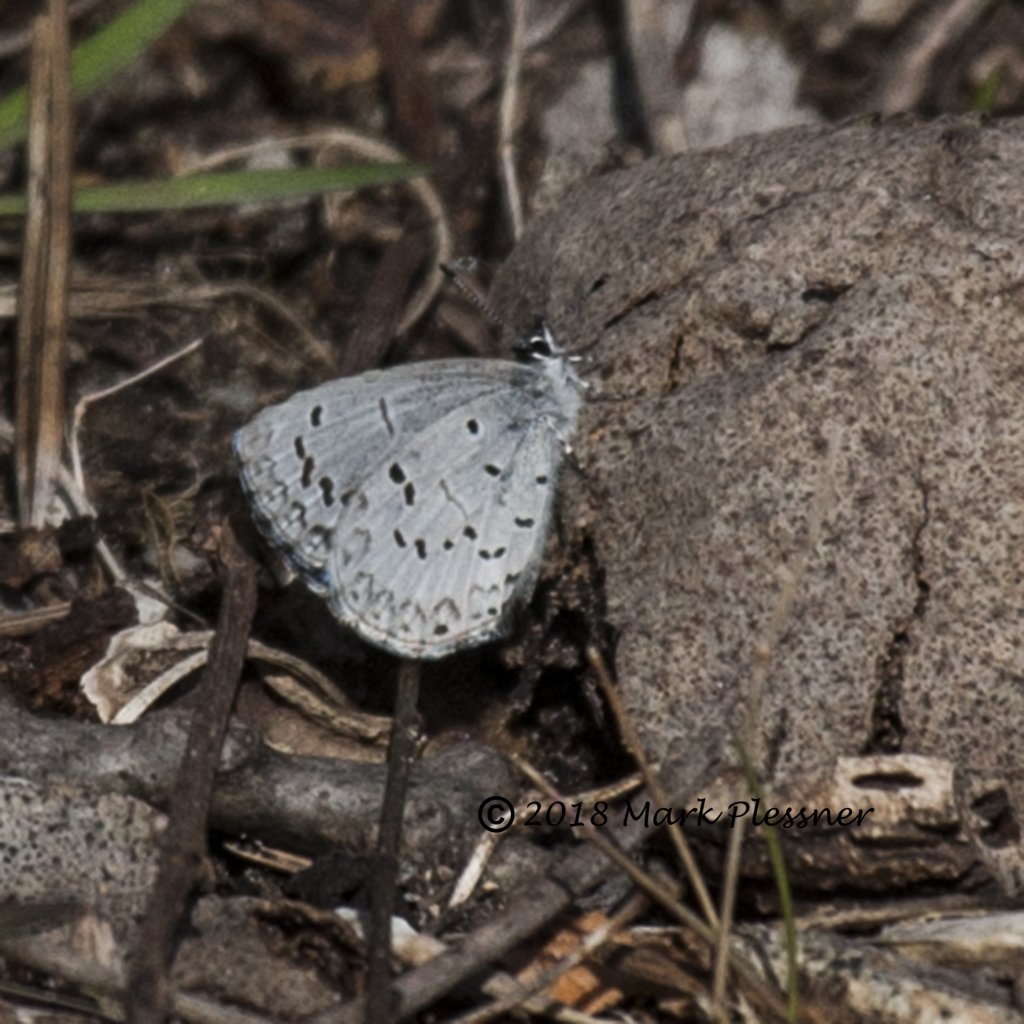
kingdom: Animalia
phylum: Arthropoda
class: Insecta
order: Lepidoptera
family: Lycaenidae
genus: Celastrina
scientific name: Celastrina ladon
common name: Spring Azure
